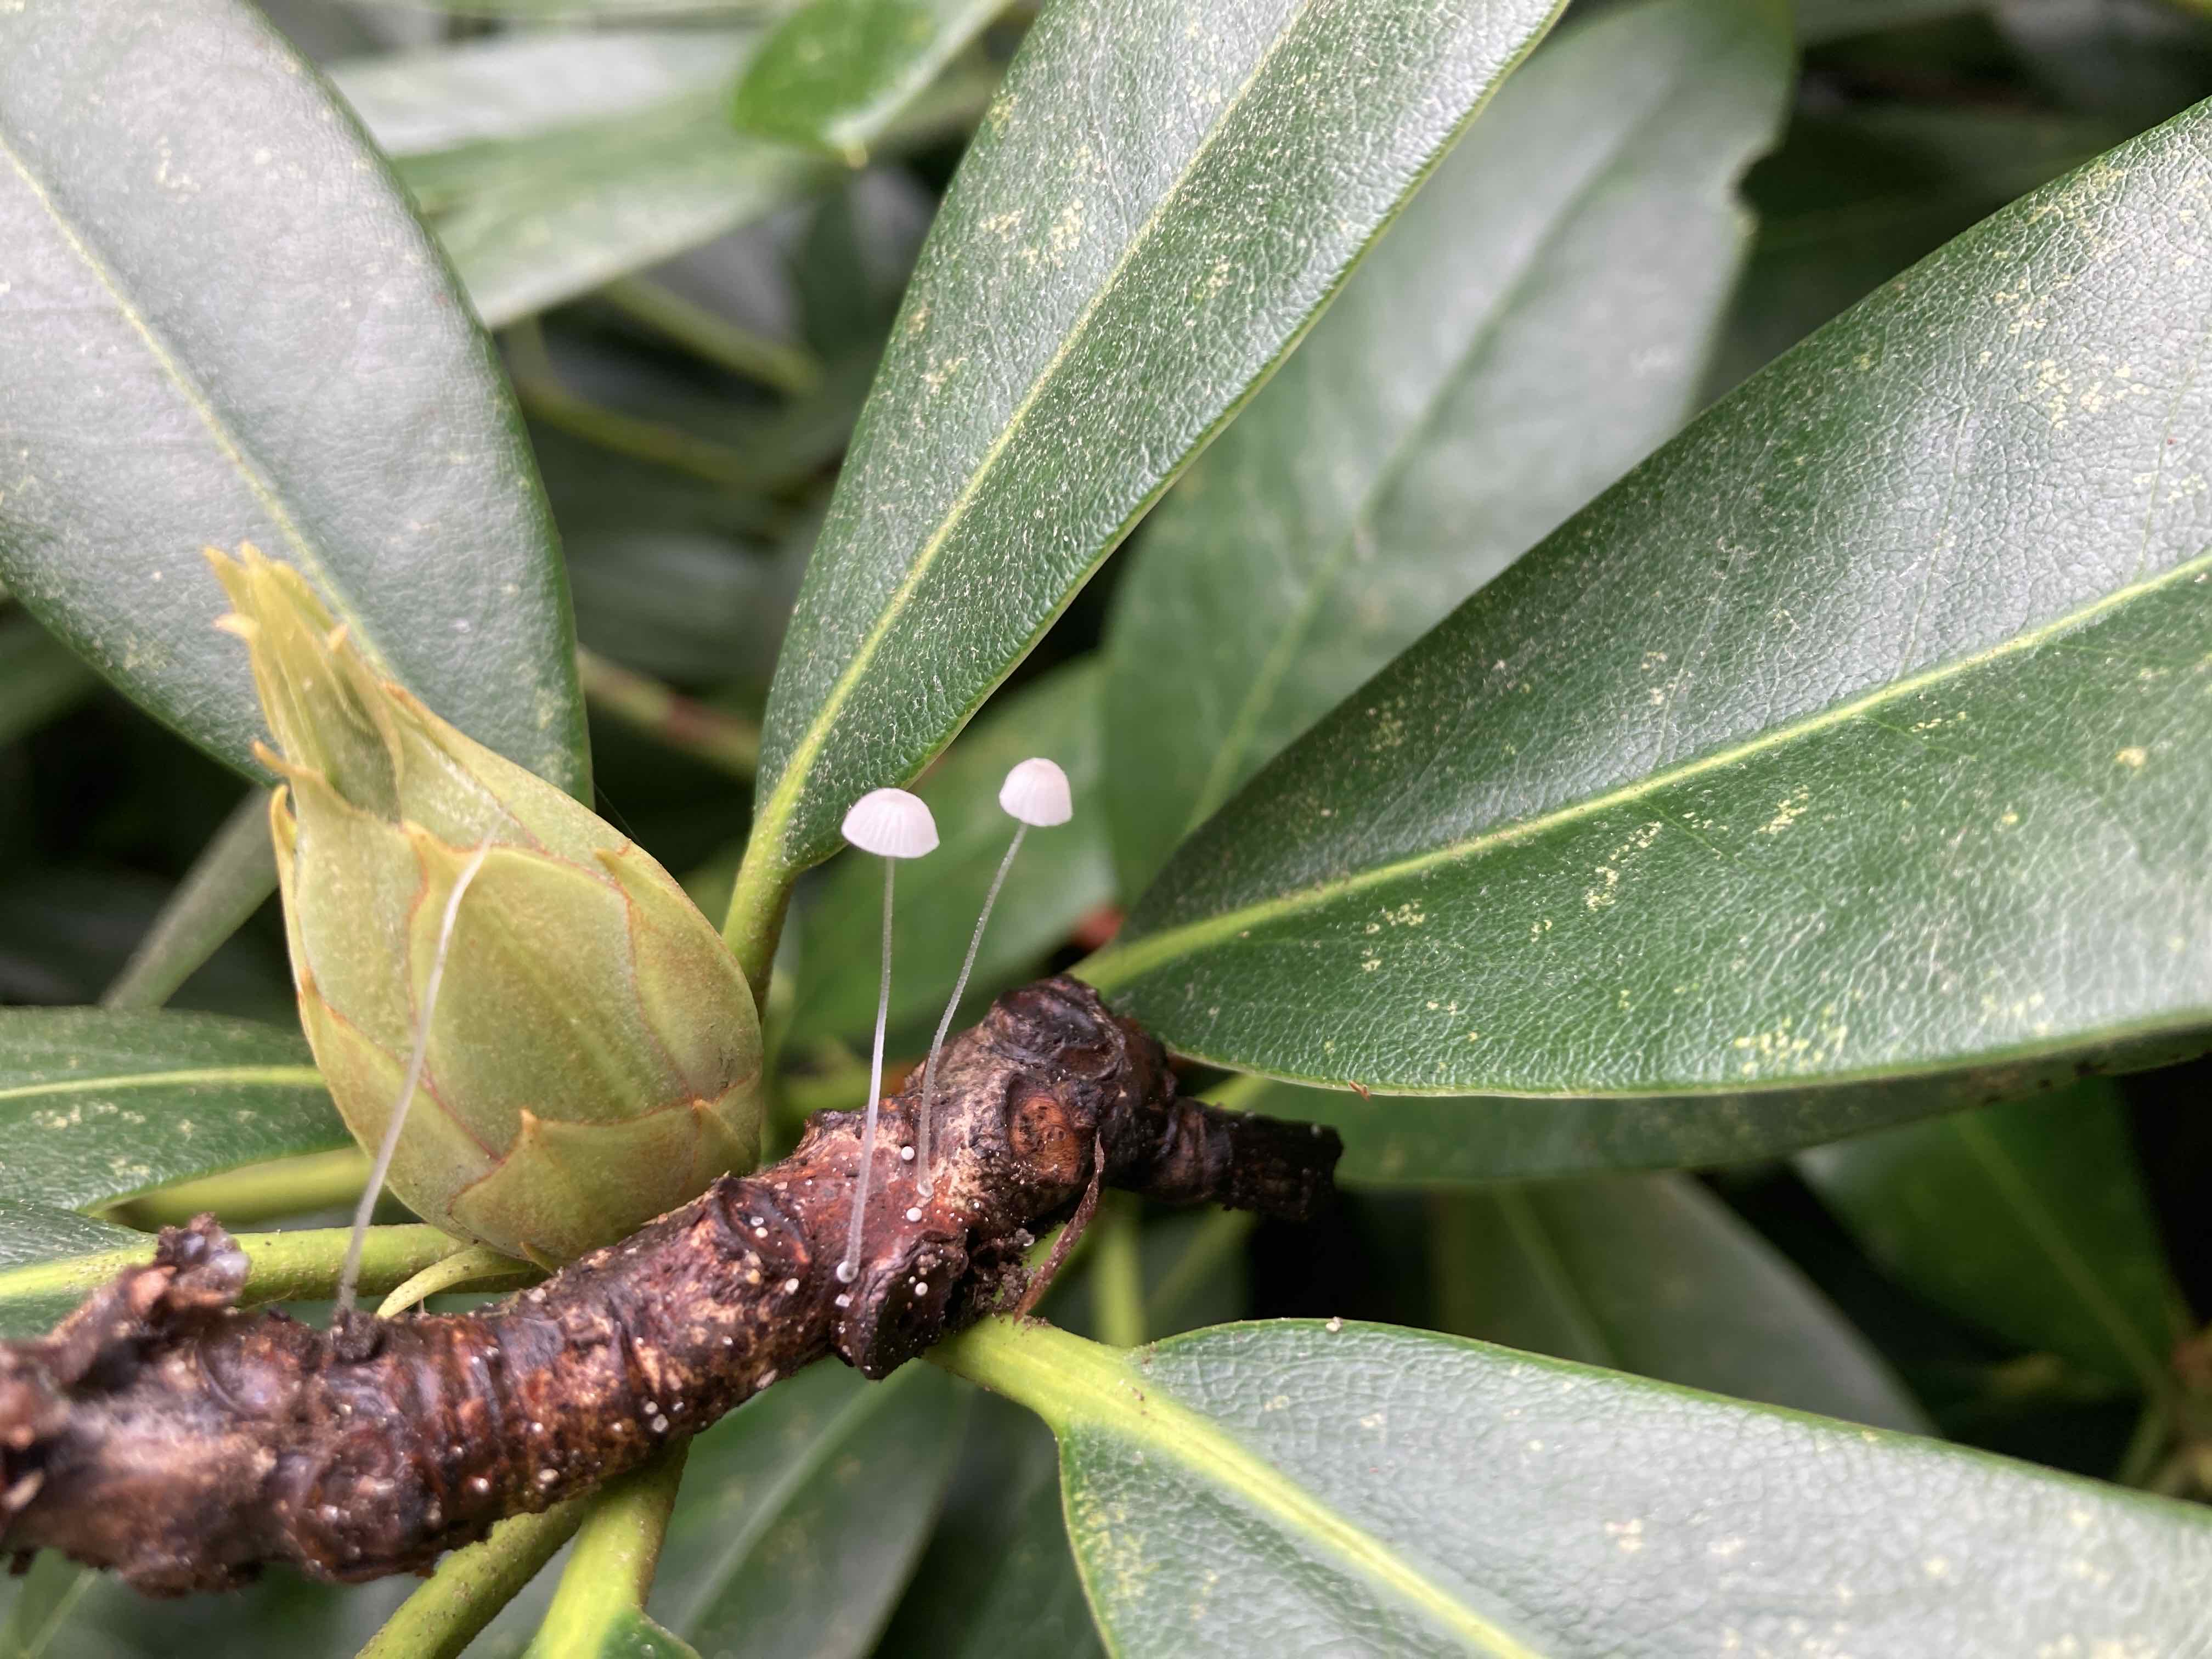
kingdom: Fungi
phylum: Basidiomycota
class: Agaricomycetes
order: Agaricales
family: Mycenaceae
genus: Mycena
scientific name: Mycena tenerrima
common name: pudret huesvamp
